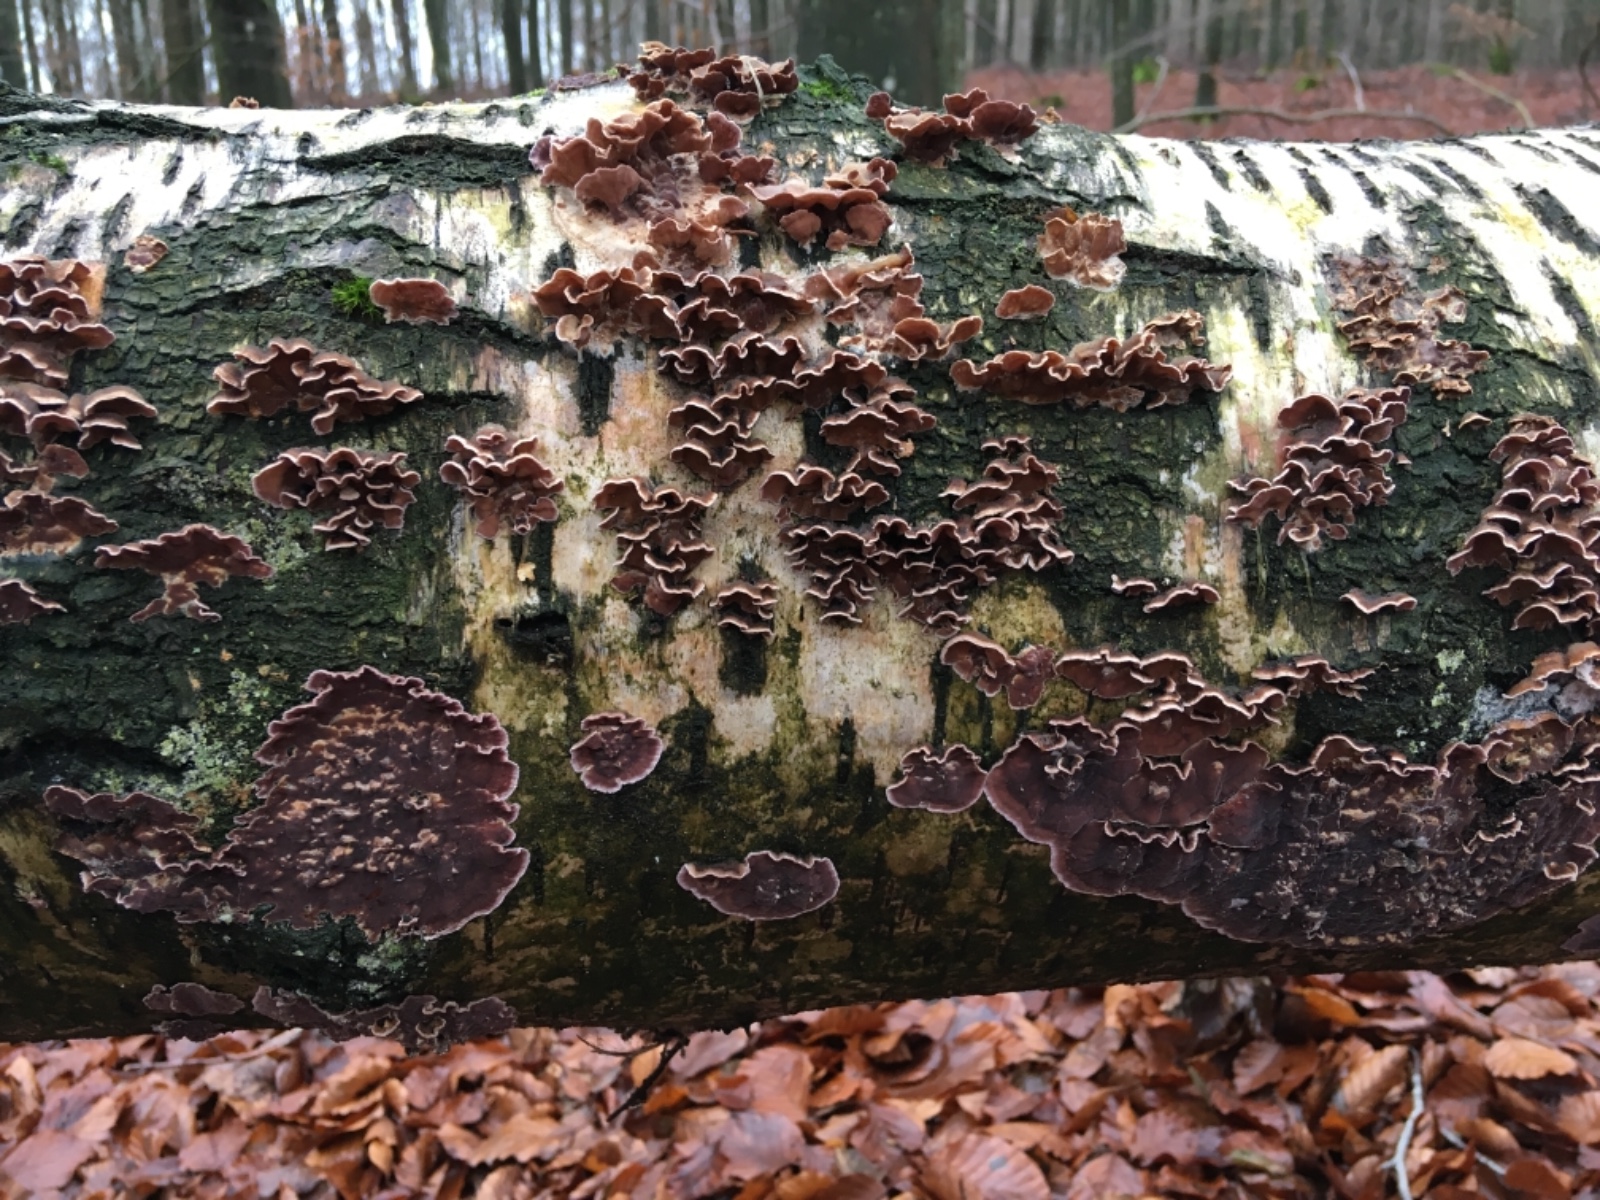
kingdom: Fungi
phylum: Basidiomycota
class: Agaricomycetes
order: Agaricales
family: Cyphellaceae
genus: Chondrostereum
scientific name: Chondrostereum purpureum
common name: purpurlædersvamp
